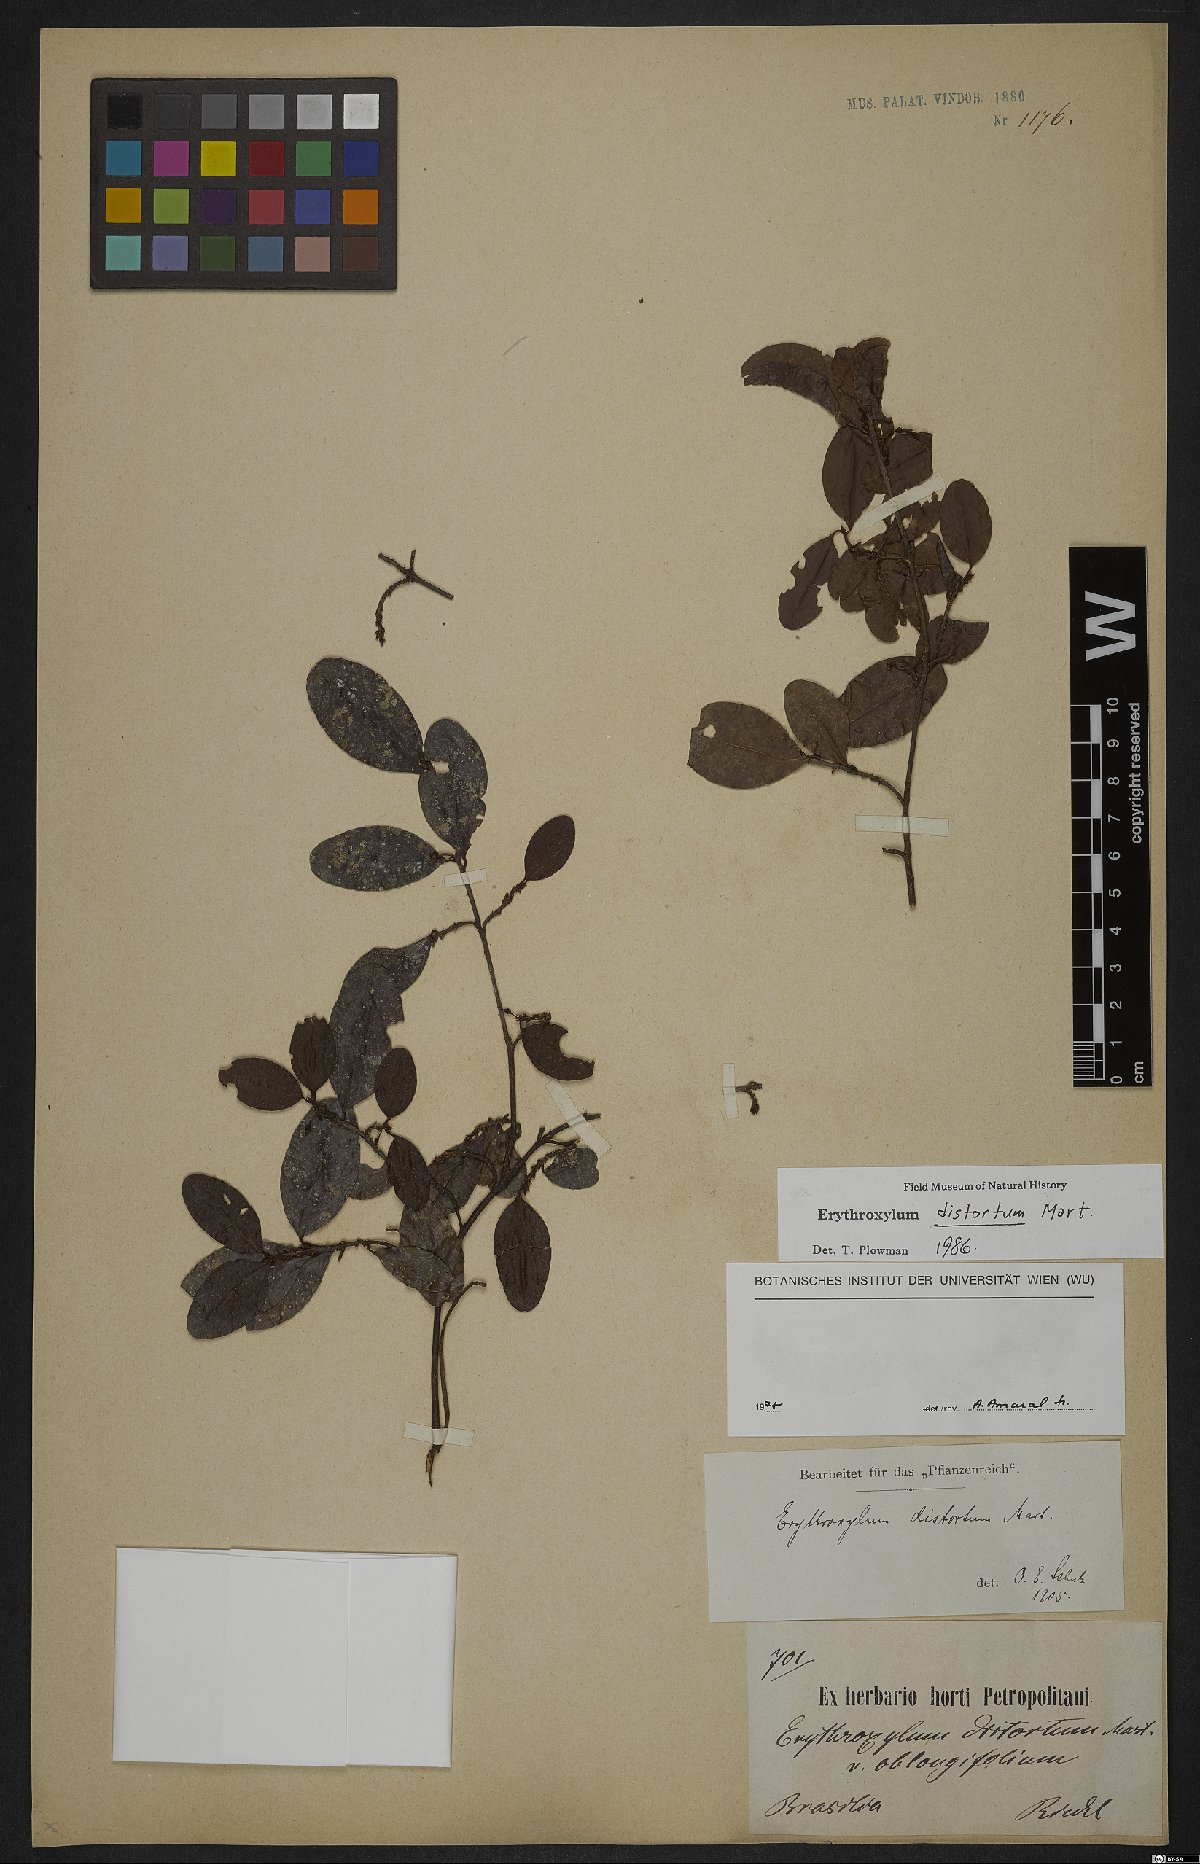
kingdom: Plantae
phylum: Tracheophyta
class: Magnoliopsida
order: Malpighiales
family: Erythroxylaceae
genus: Erythroxylum
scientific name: Erythroxylum distortum
